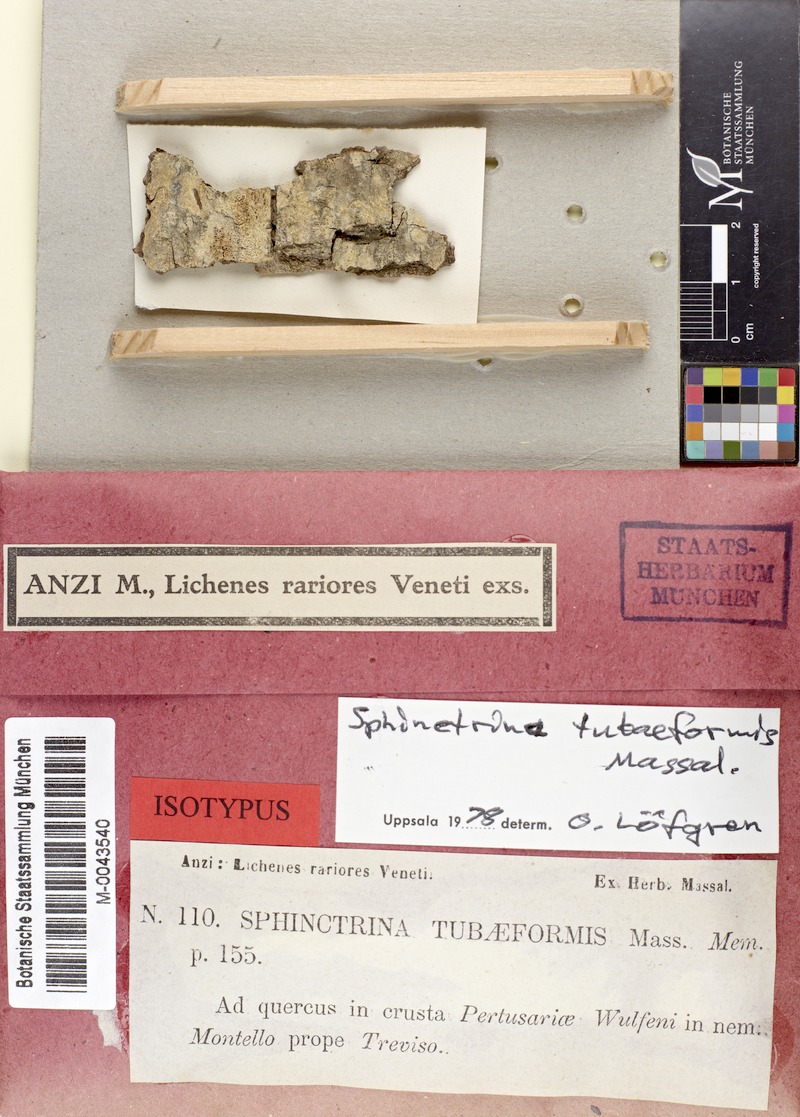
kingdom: Fungi
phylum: Ascomycota
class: Eurotiomycetes
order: Mycocaliciales
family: Sphinctrinaceae
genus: Sphinctrina
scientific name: Sphinctrina tubaeformis
